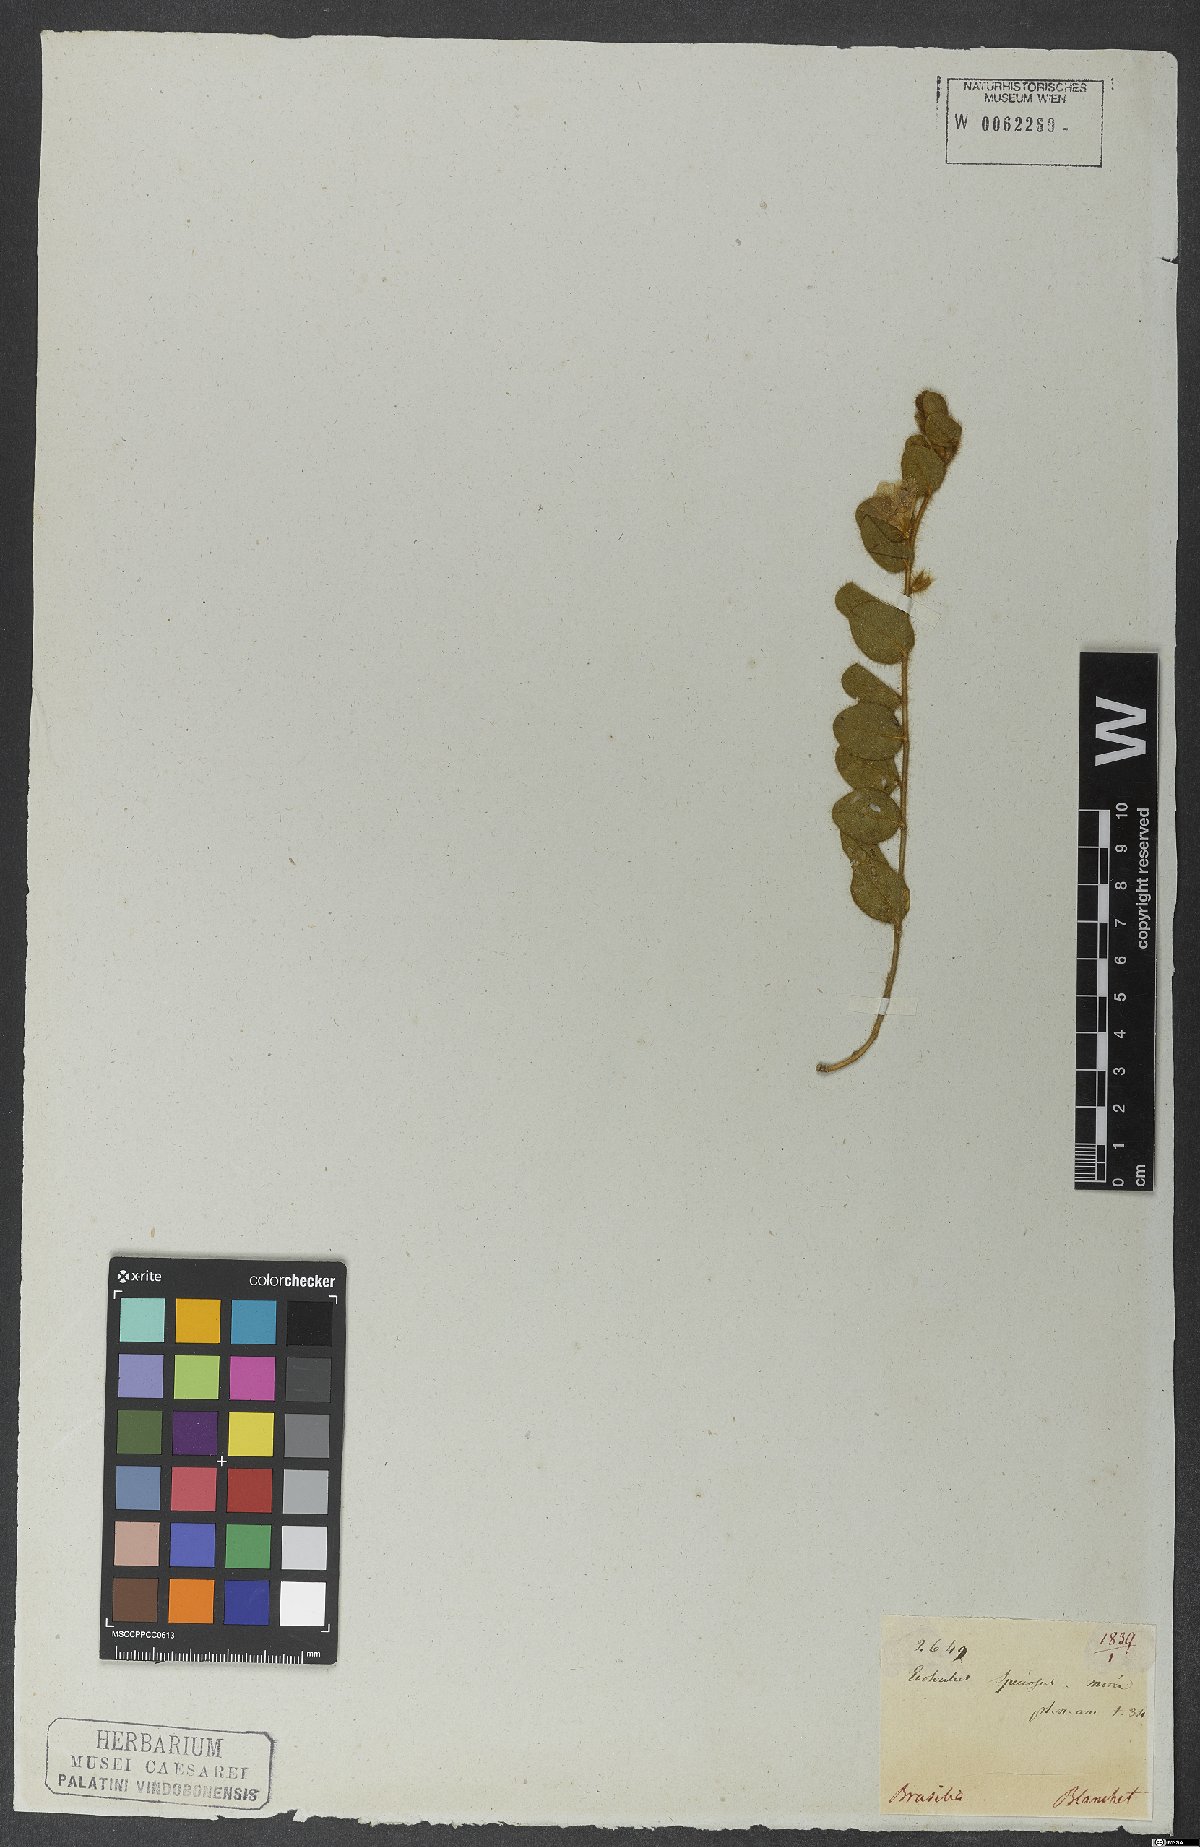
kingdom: Plantae
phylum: Tracheophyta
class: Magnoliopsida
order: Solanales
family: Convolvulaceae
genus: Evolvulus
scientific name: Evolvulus speciosus
